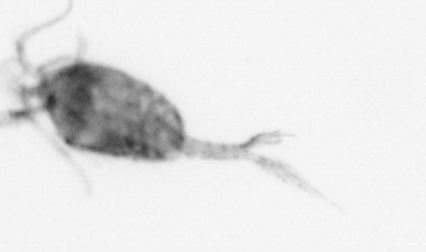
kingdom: Animalia
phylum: Arthropoda
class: Copepoda
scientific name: Copepoda
